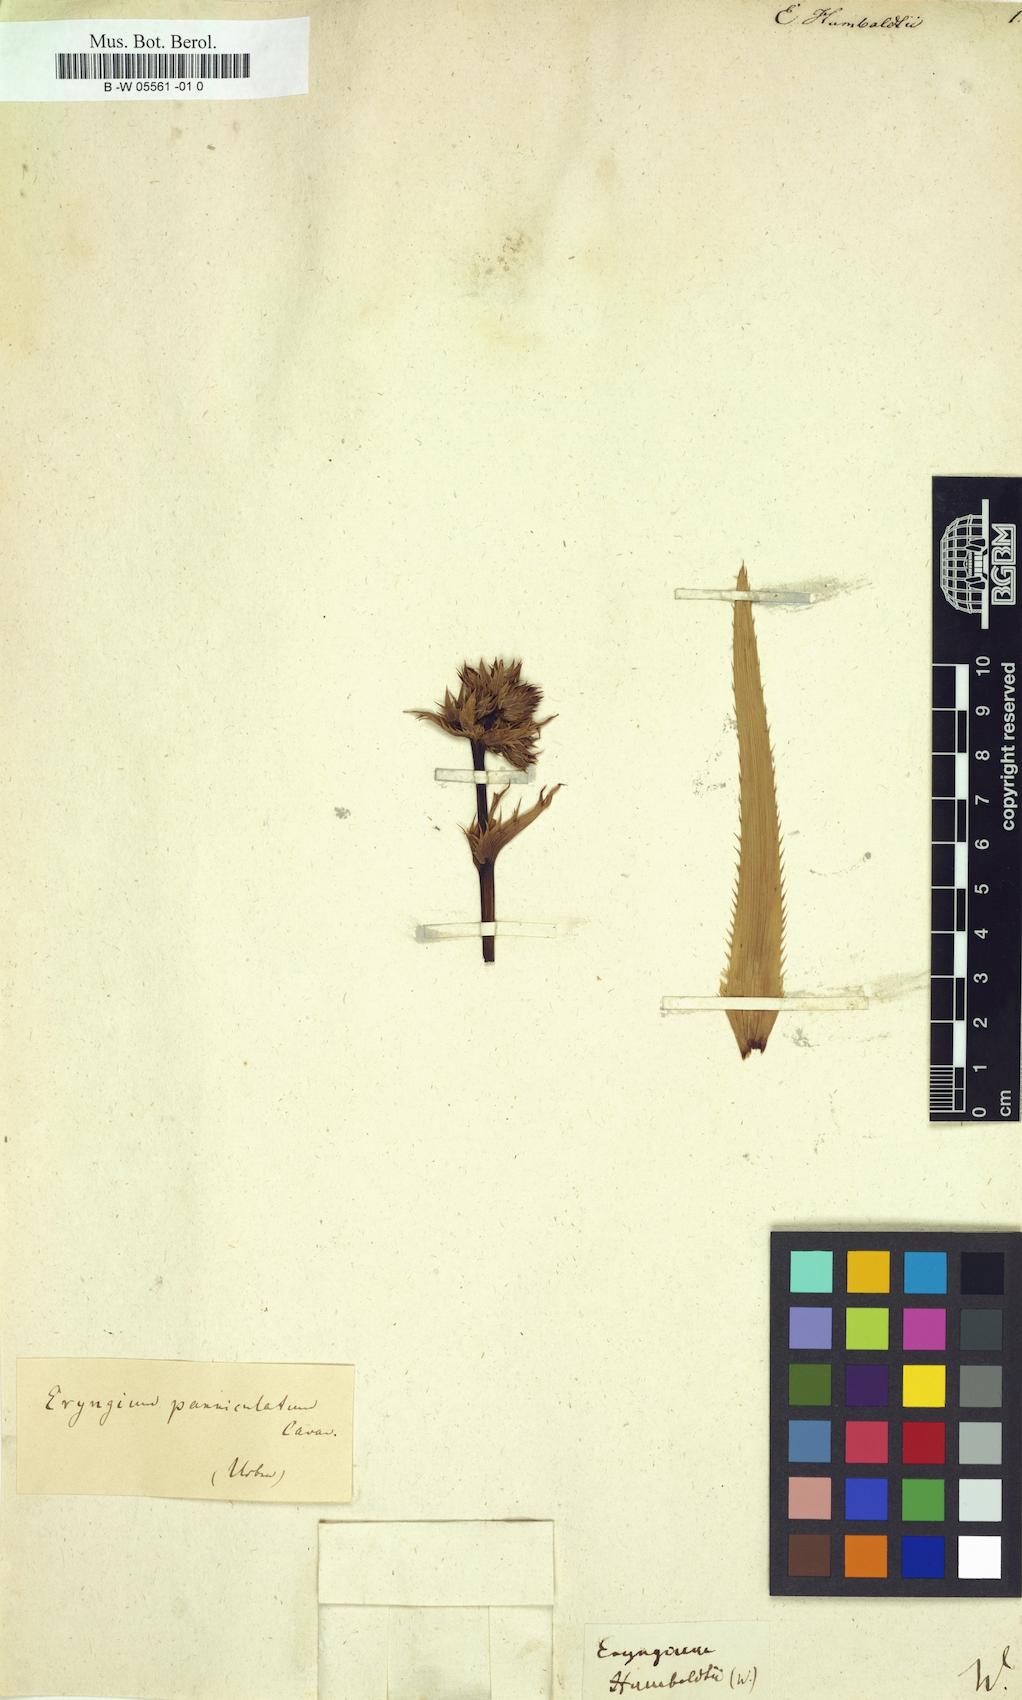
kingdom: Plantae
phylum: Tracheophyta
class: Magnoliopsida
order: Apiales
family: Apiaceae
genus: Eryngium
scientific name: Eryngium humboldtii
